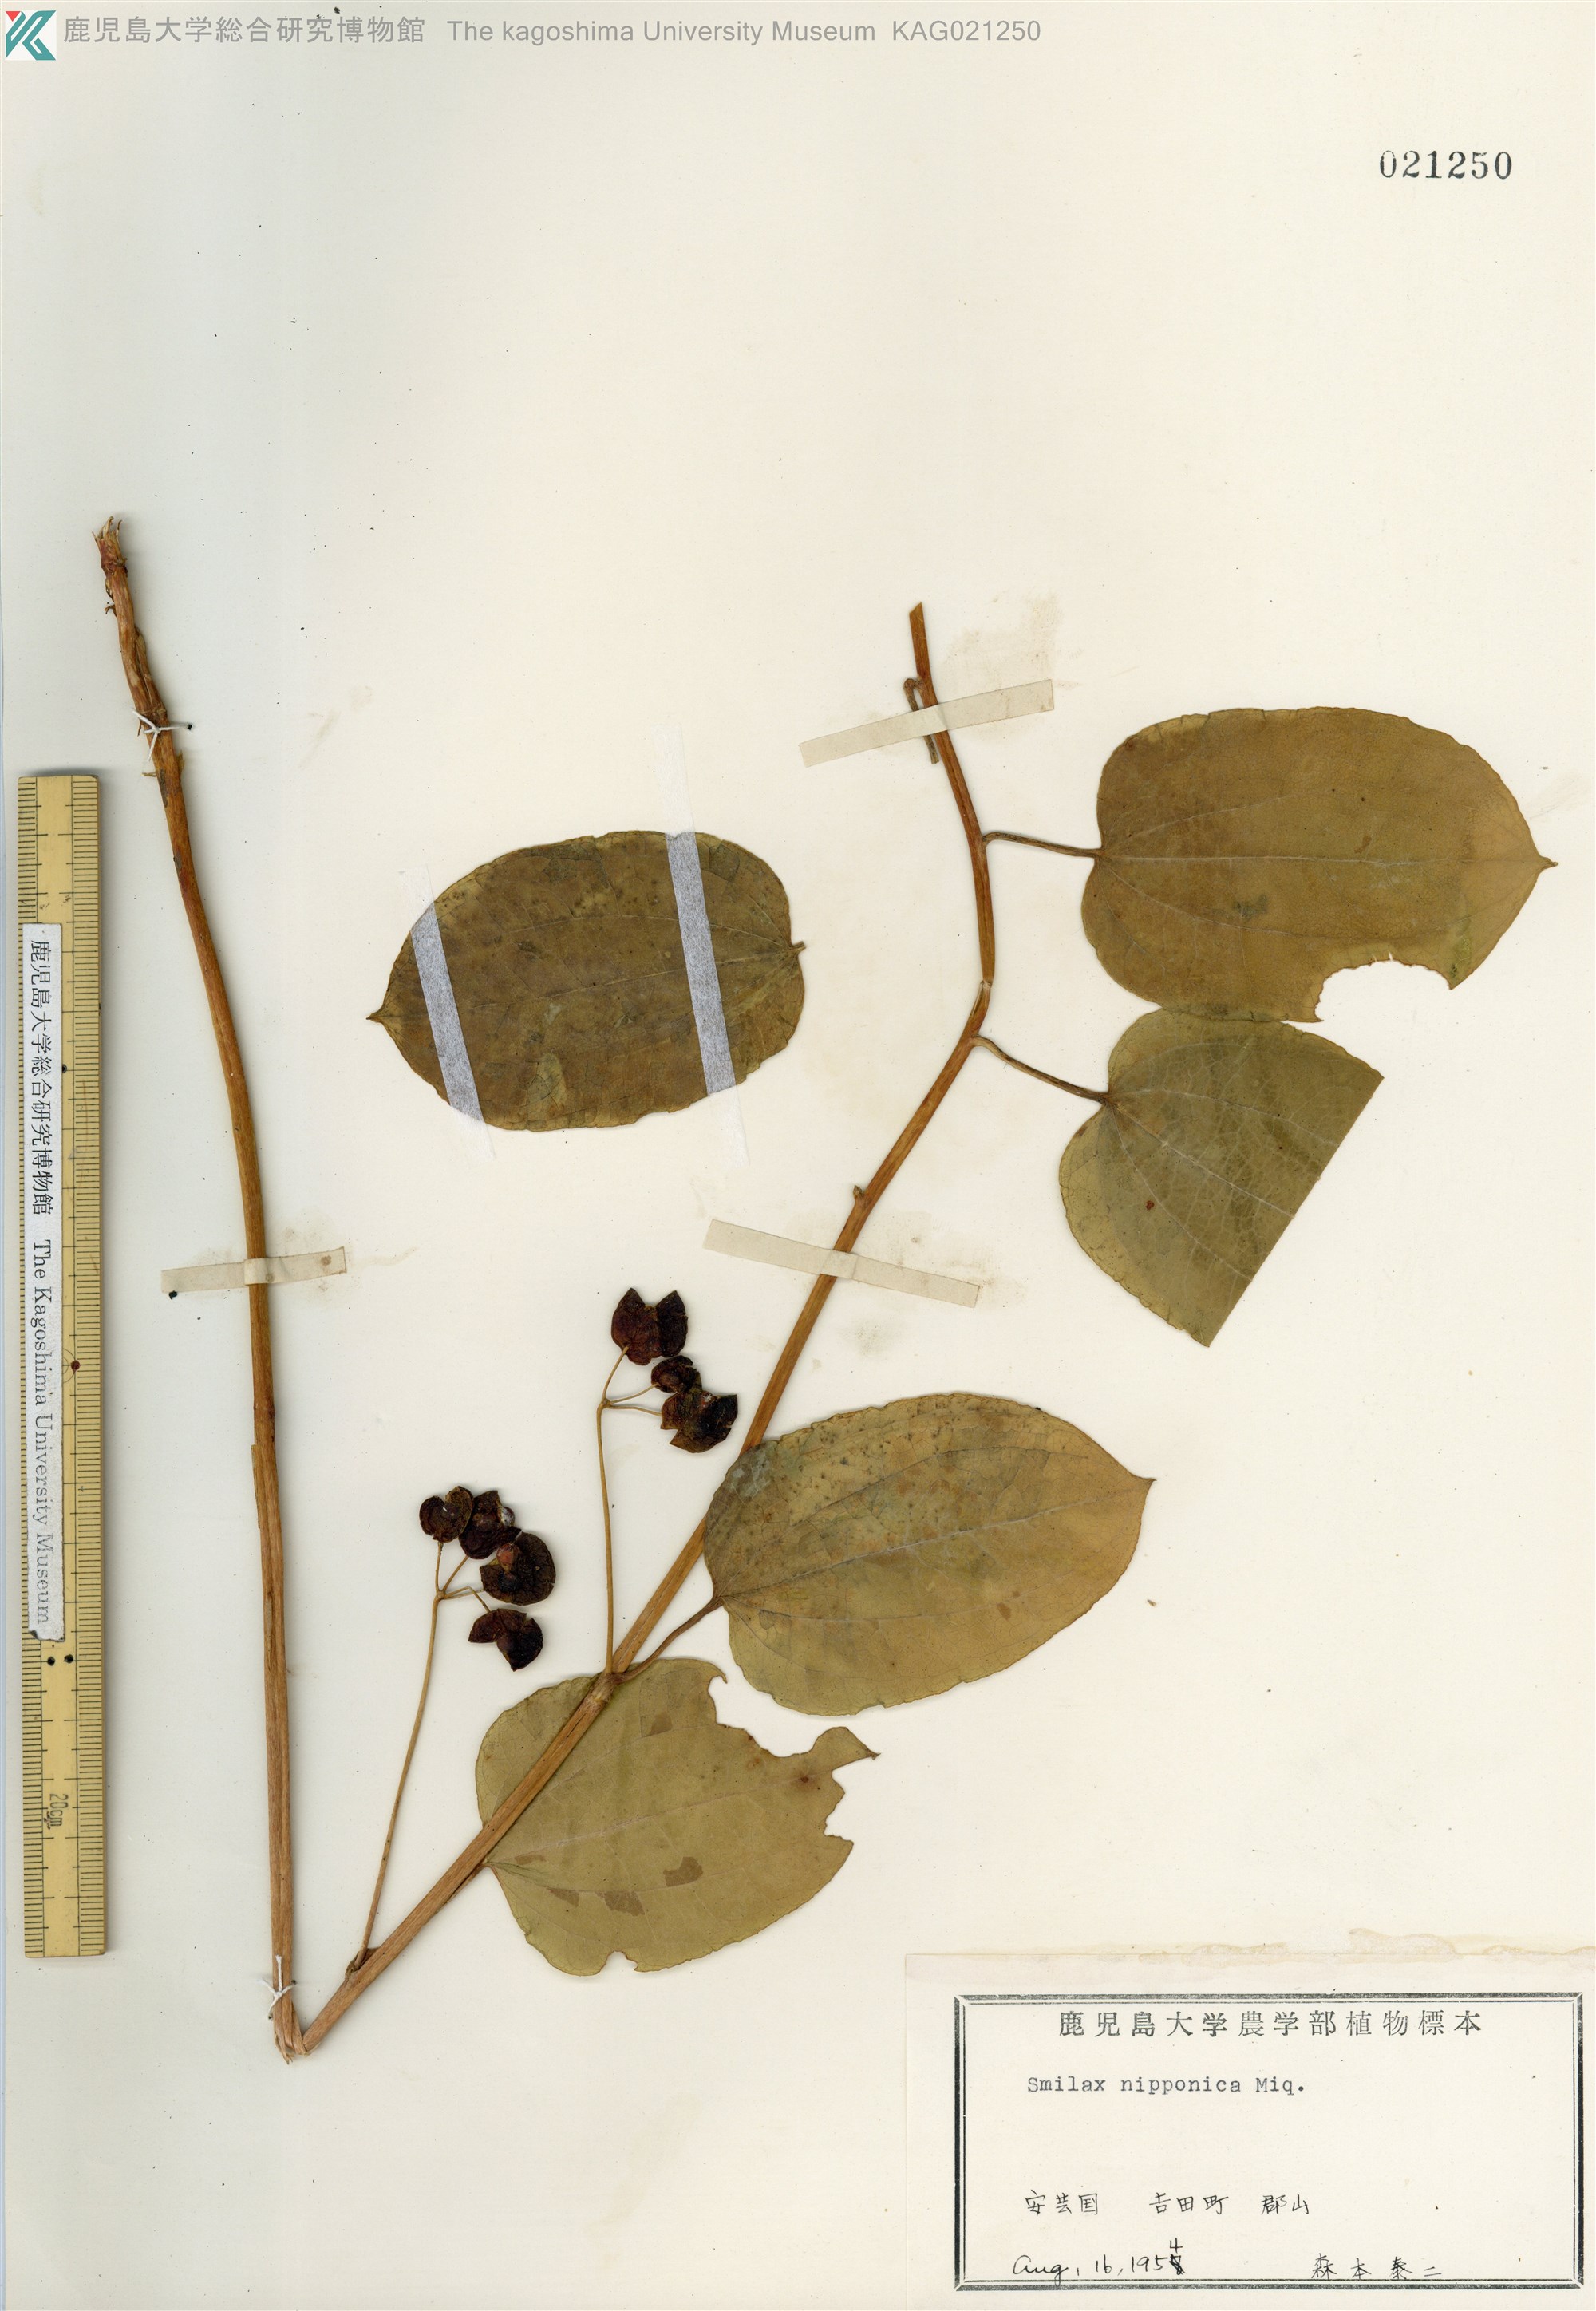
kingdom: Plantae
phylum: Tracheophyta
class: Liliopsida
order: Liliales
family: Smilacaceae
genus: Smilax
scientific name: Smilax riparia
